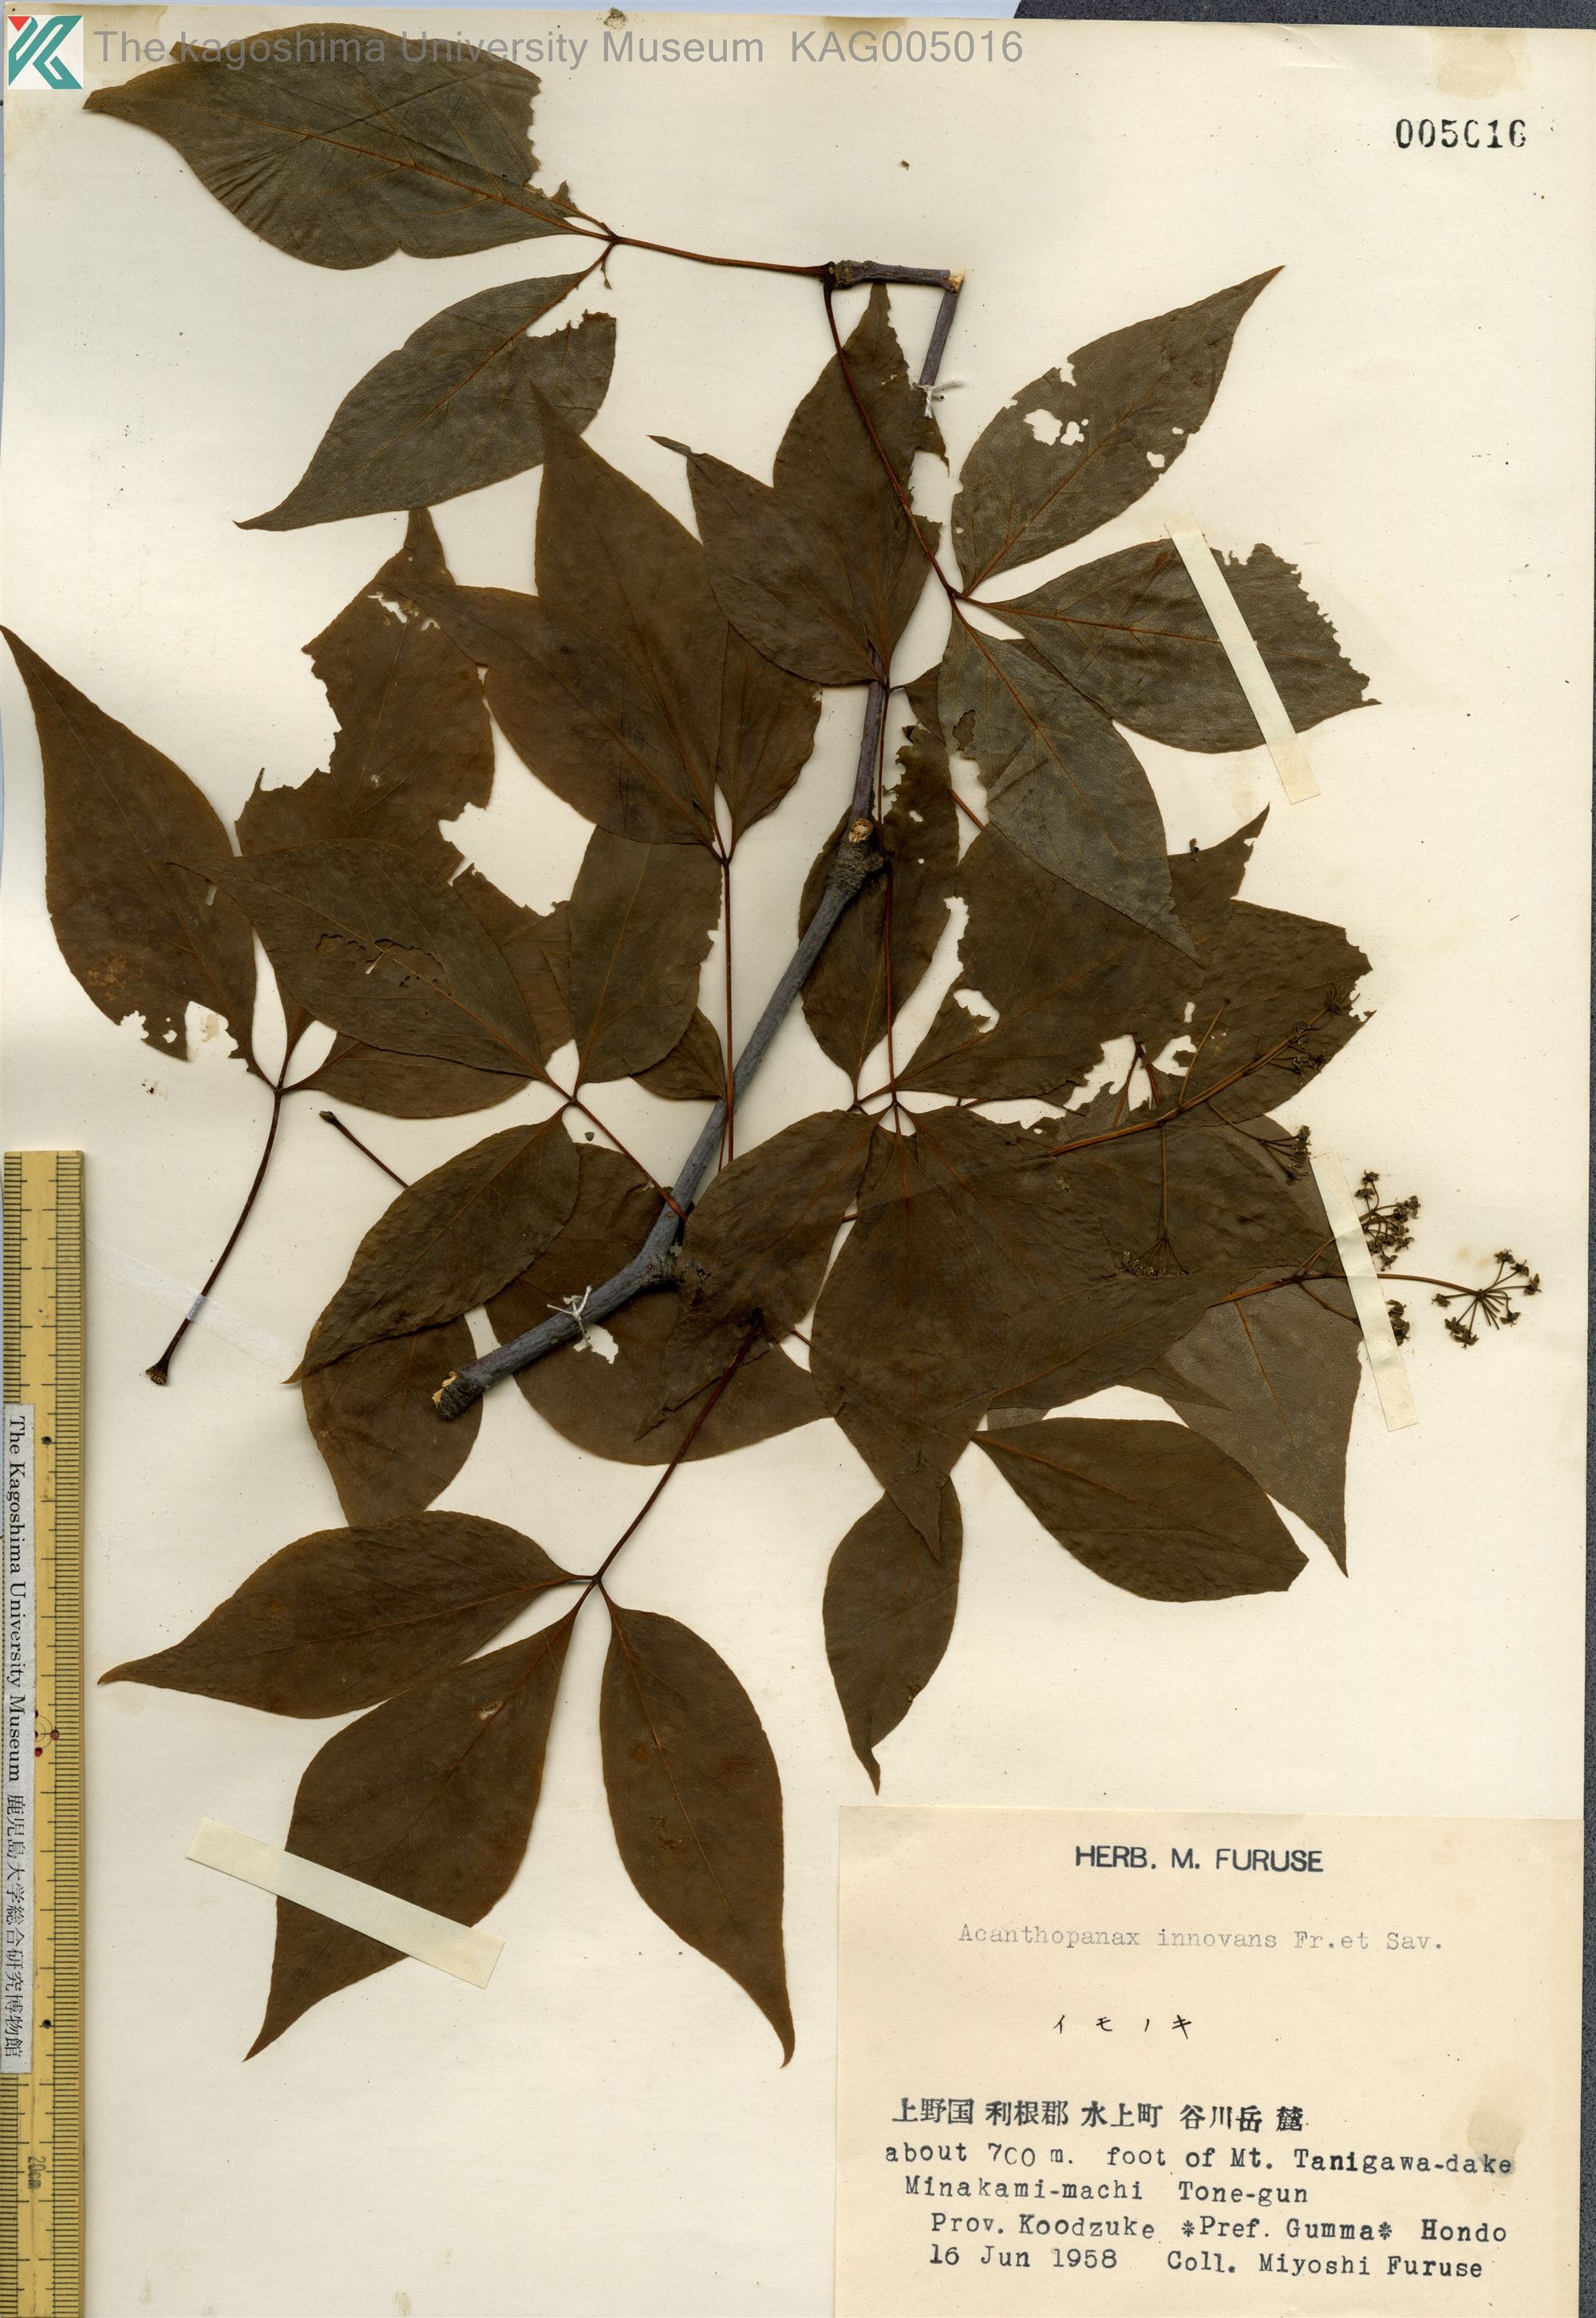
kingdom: Plantae
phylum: Tracheophyta
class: Magnoliopsida
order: Apiales
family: Araliaceae
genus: Gamblea
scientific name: Gamblea innovans
